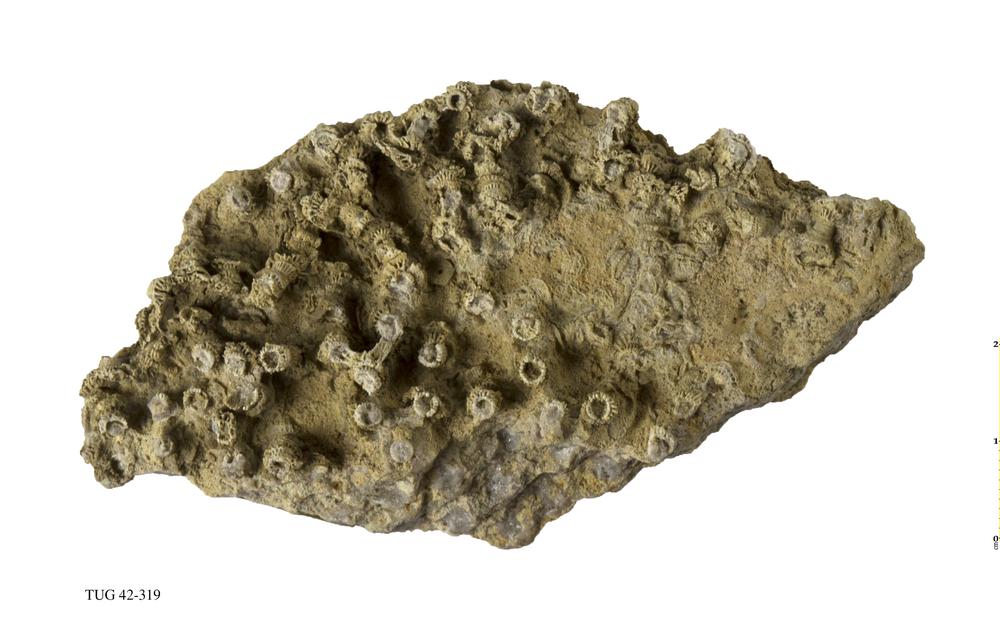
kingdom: Animalia
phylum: Cnidaria
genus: Syringophyllum
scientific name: Syringophyllum
